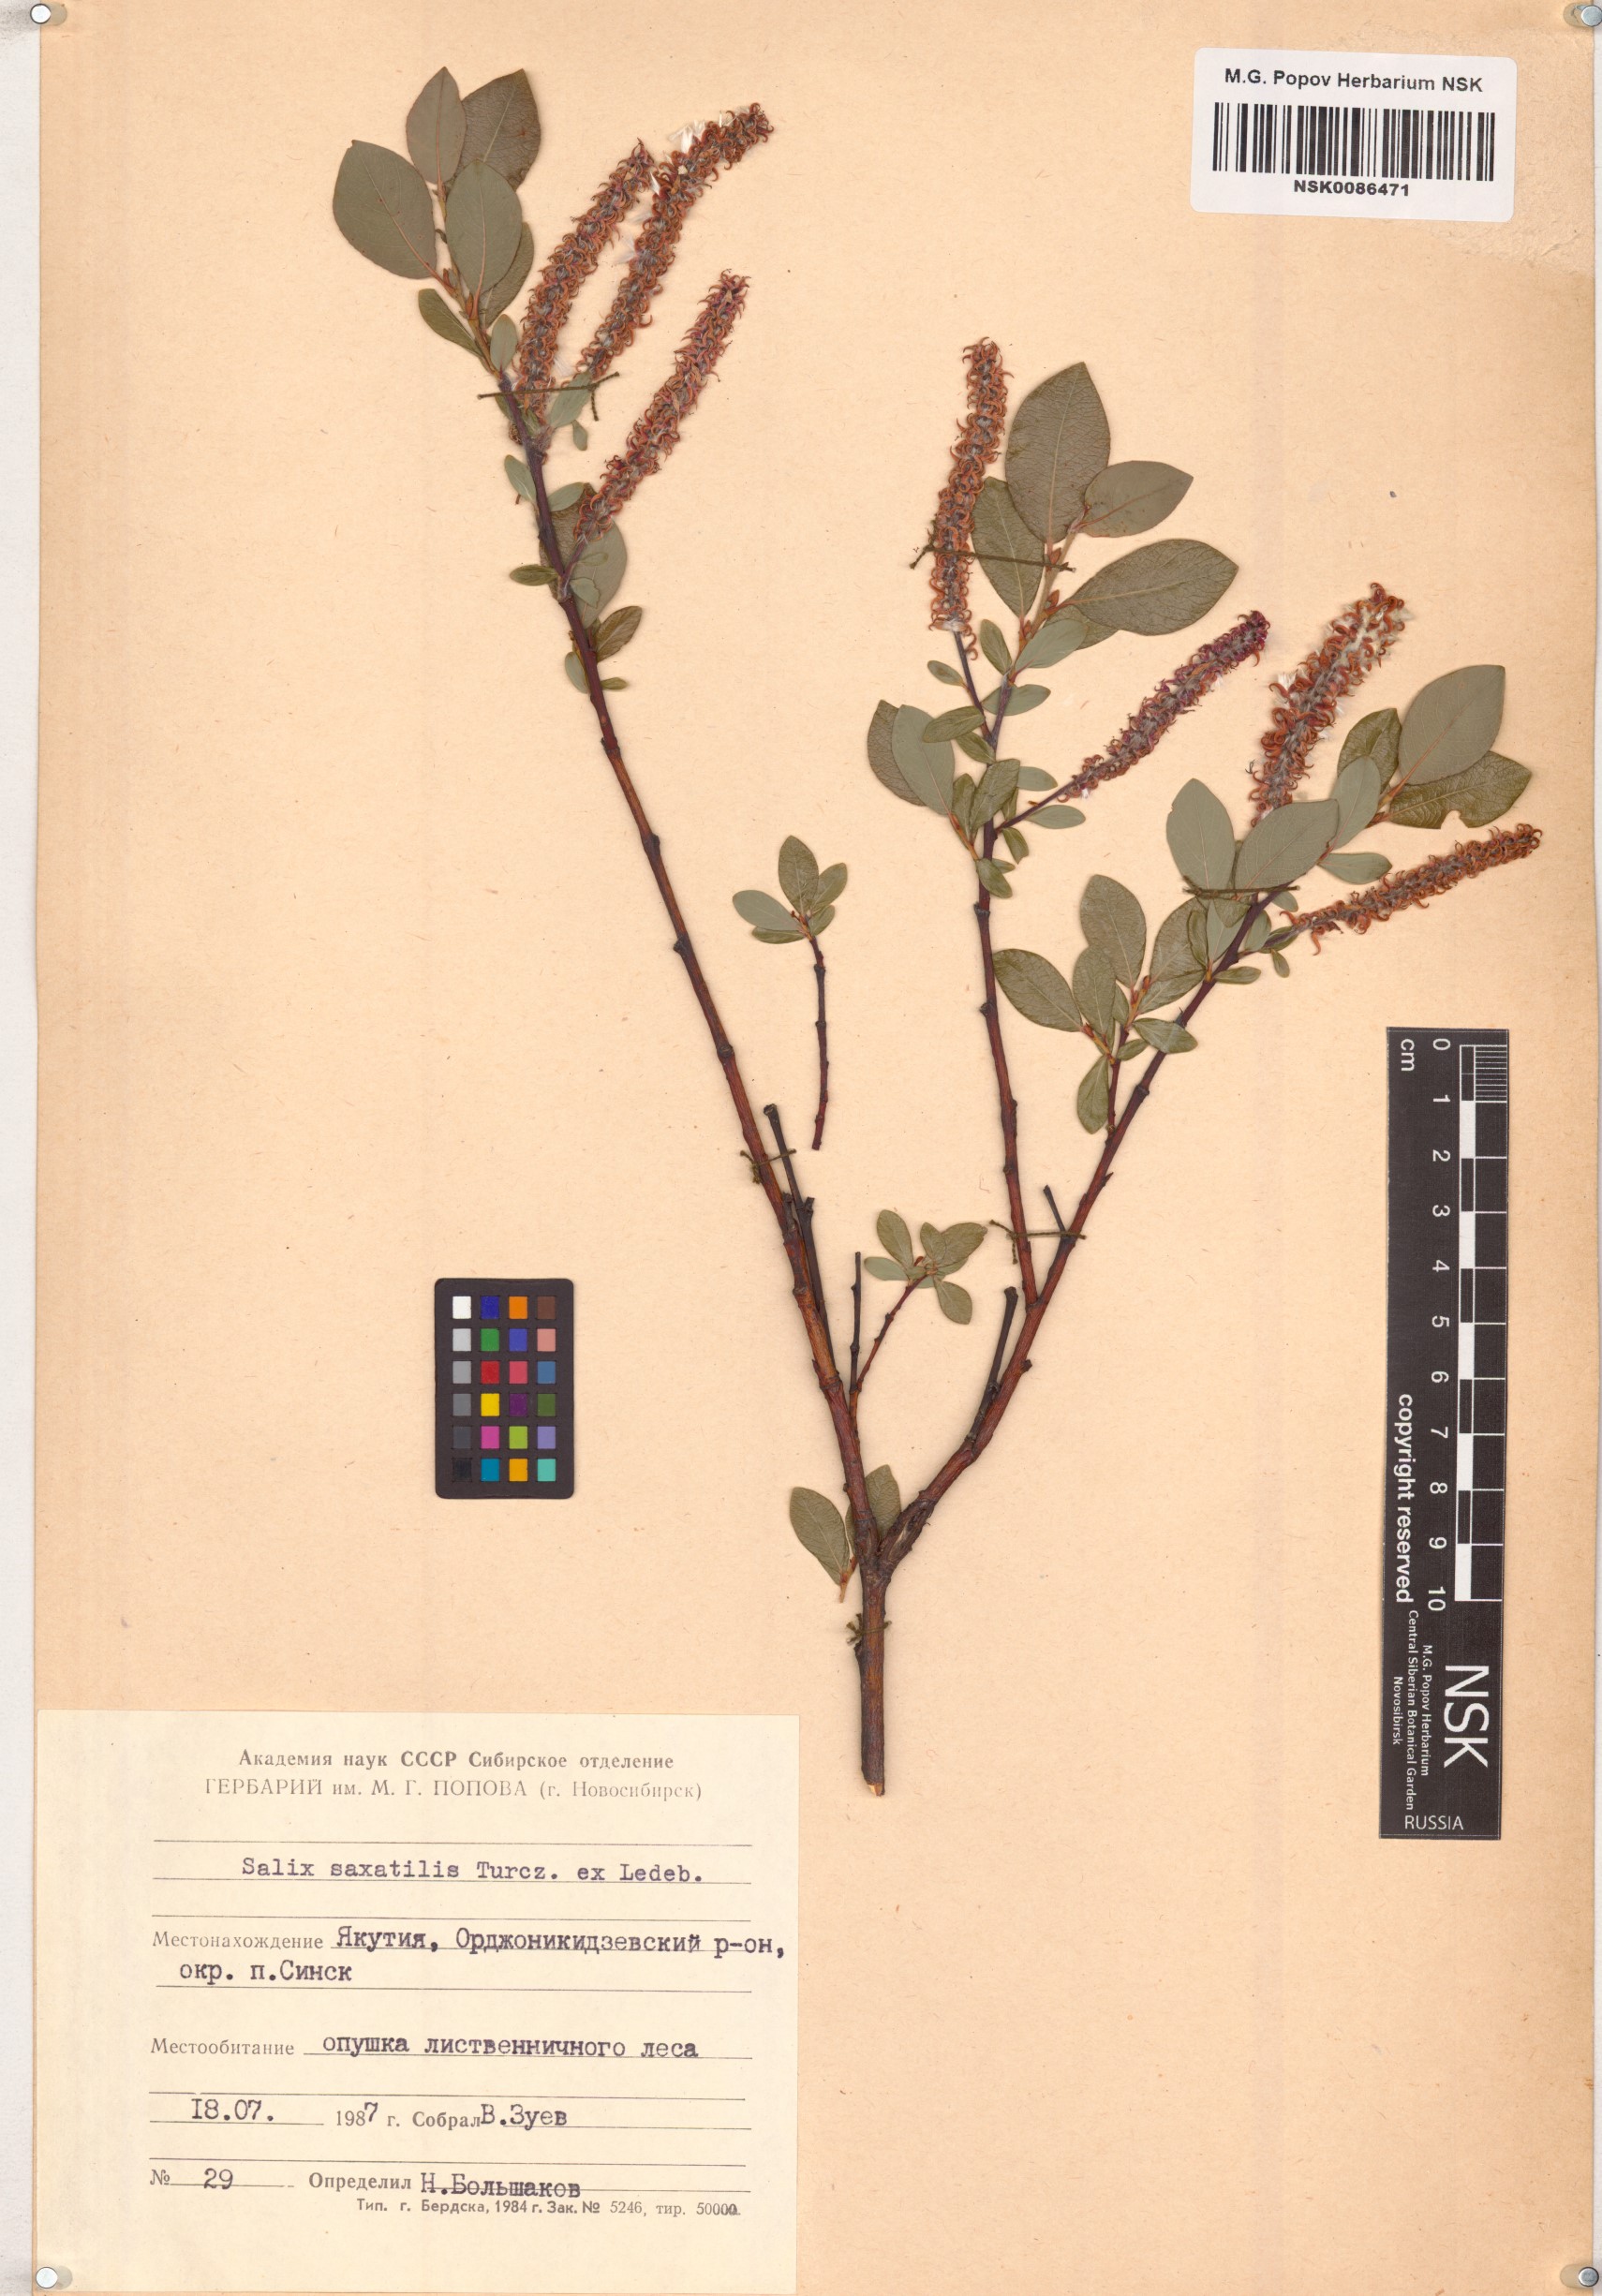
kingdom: Plantae
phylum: Tracheophyta
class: Magnoliopsida
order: Malpighiales
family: Salicaceae
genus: Salix
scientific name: Salix saxatilis
